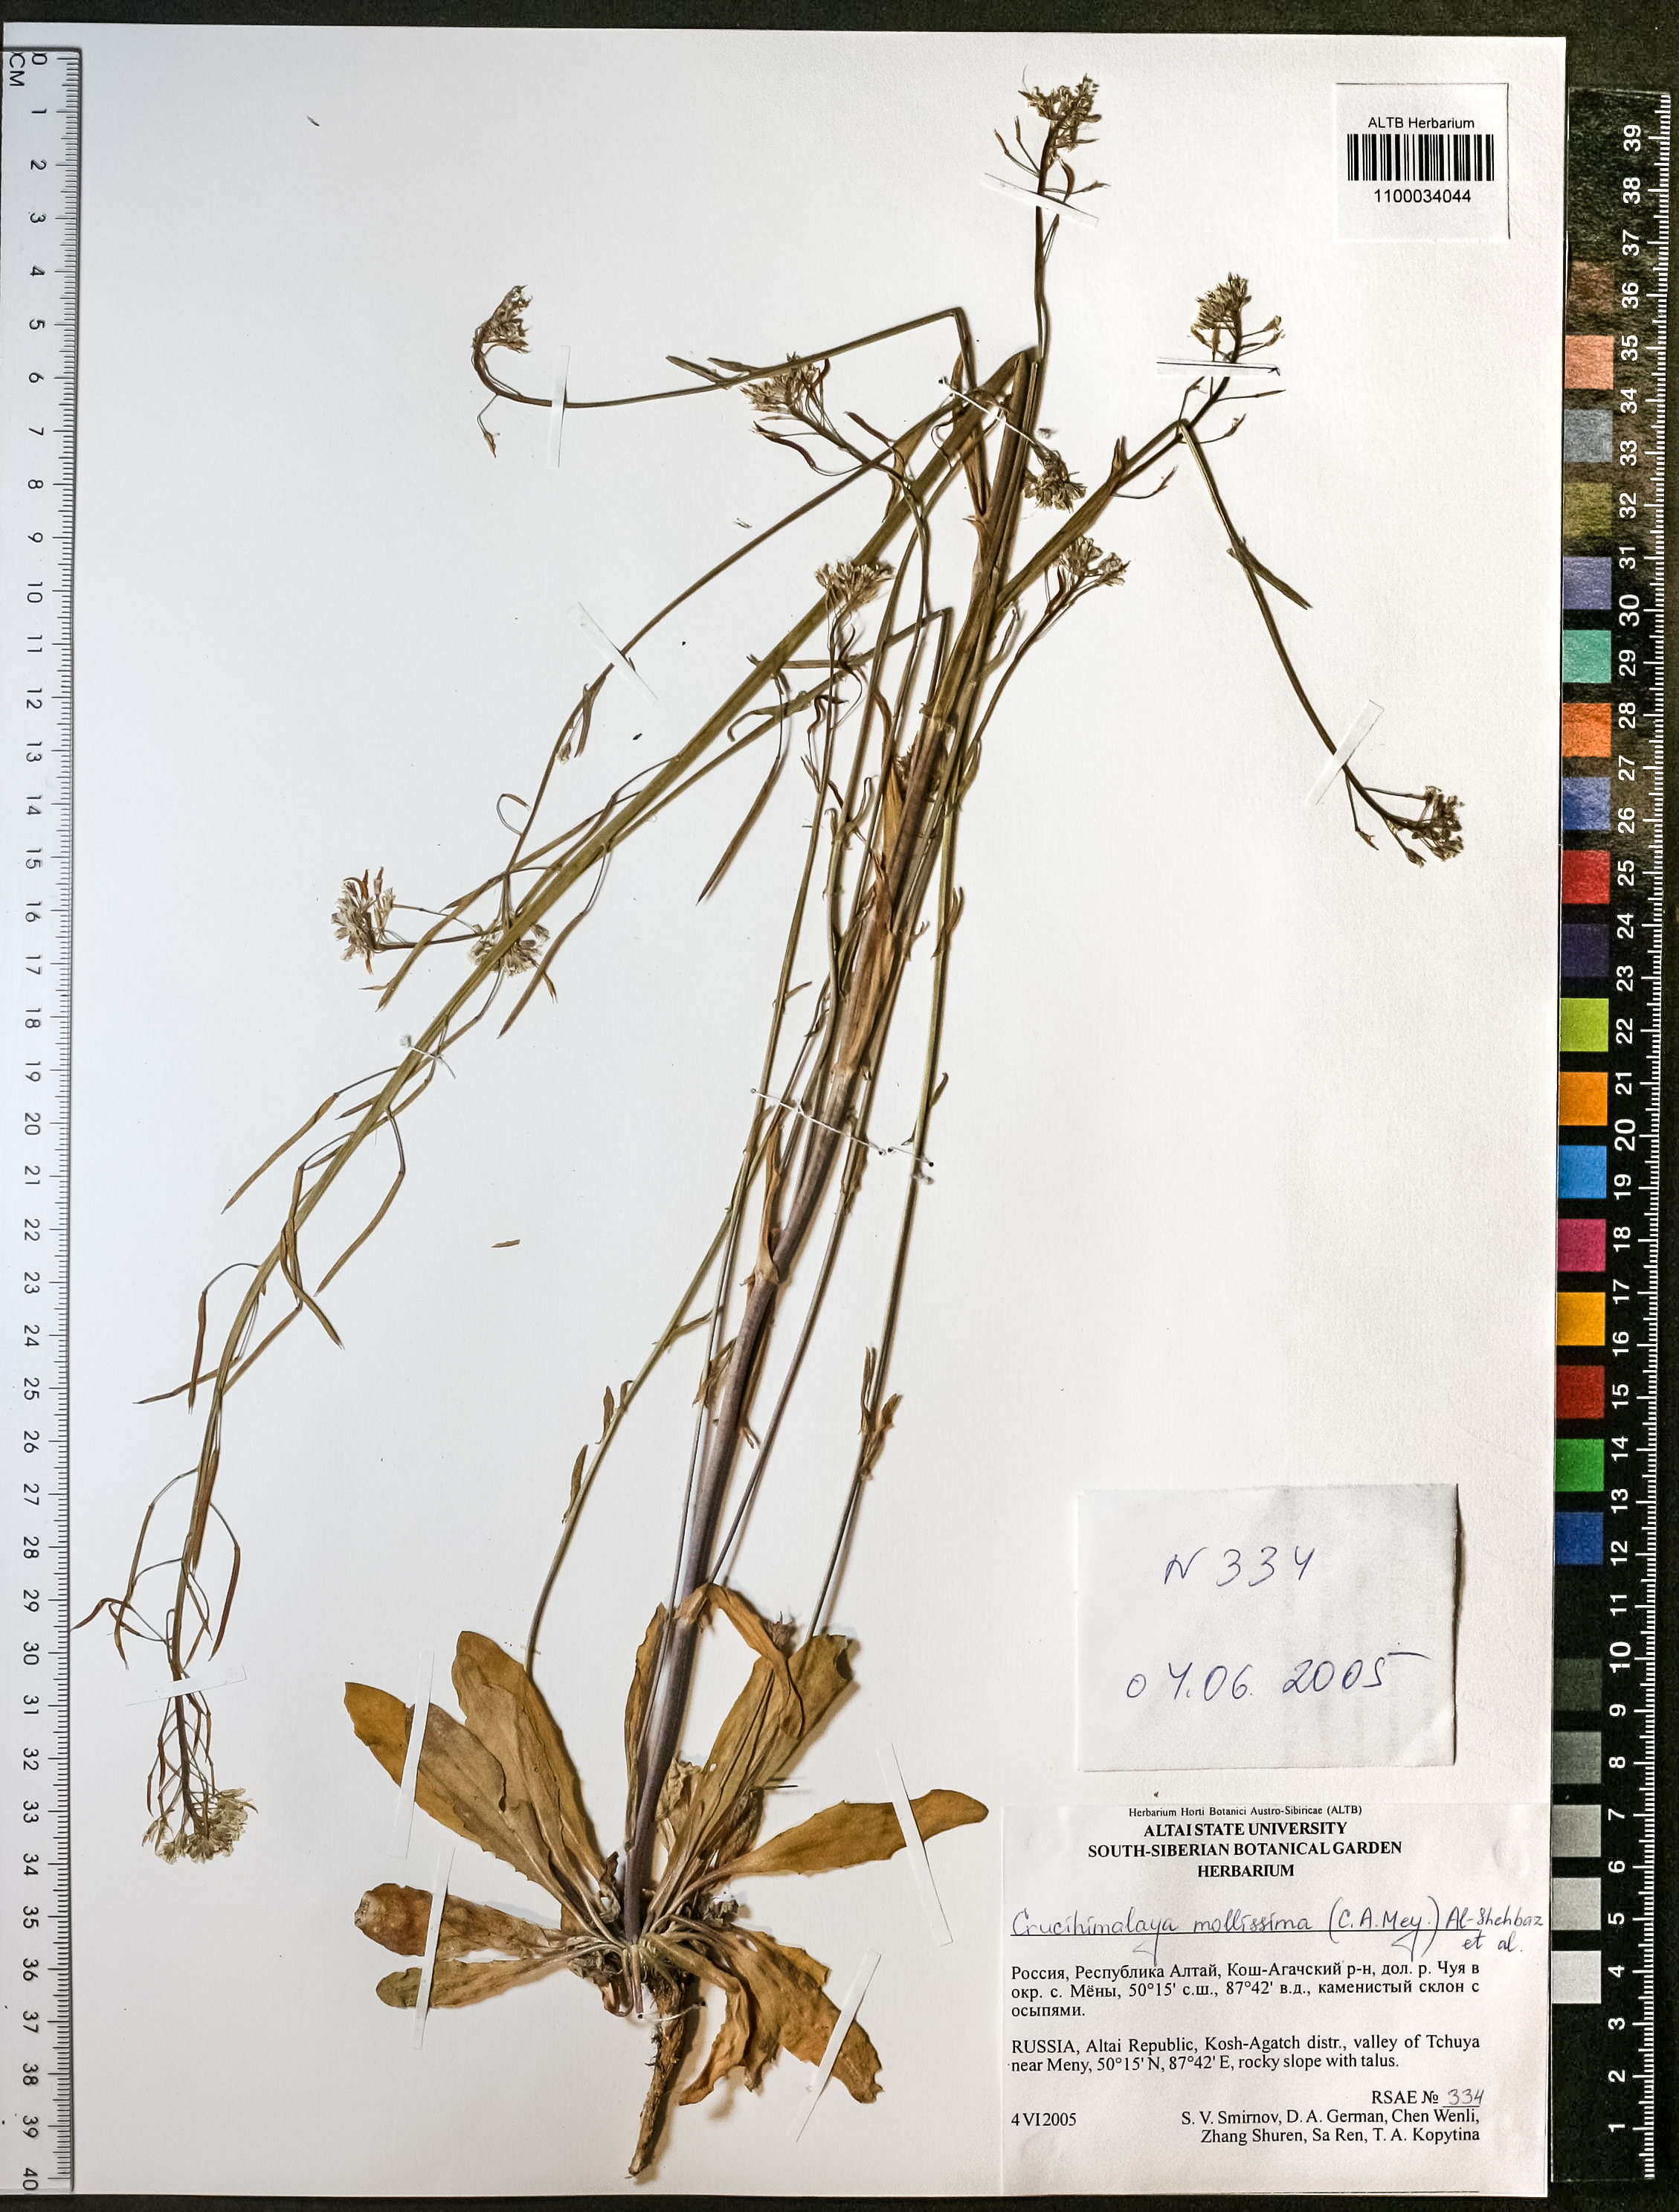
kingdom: Plantae
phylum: Tracheophyta
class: Magnoliopsida
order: Brassicales
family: Brassicaceae
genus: Crucihimalaya
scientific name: Crucihimalaya mollissima
